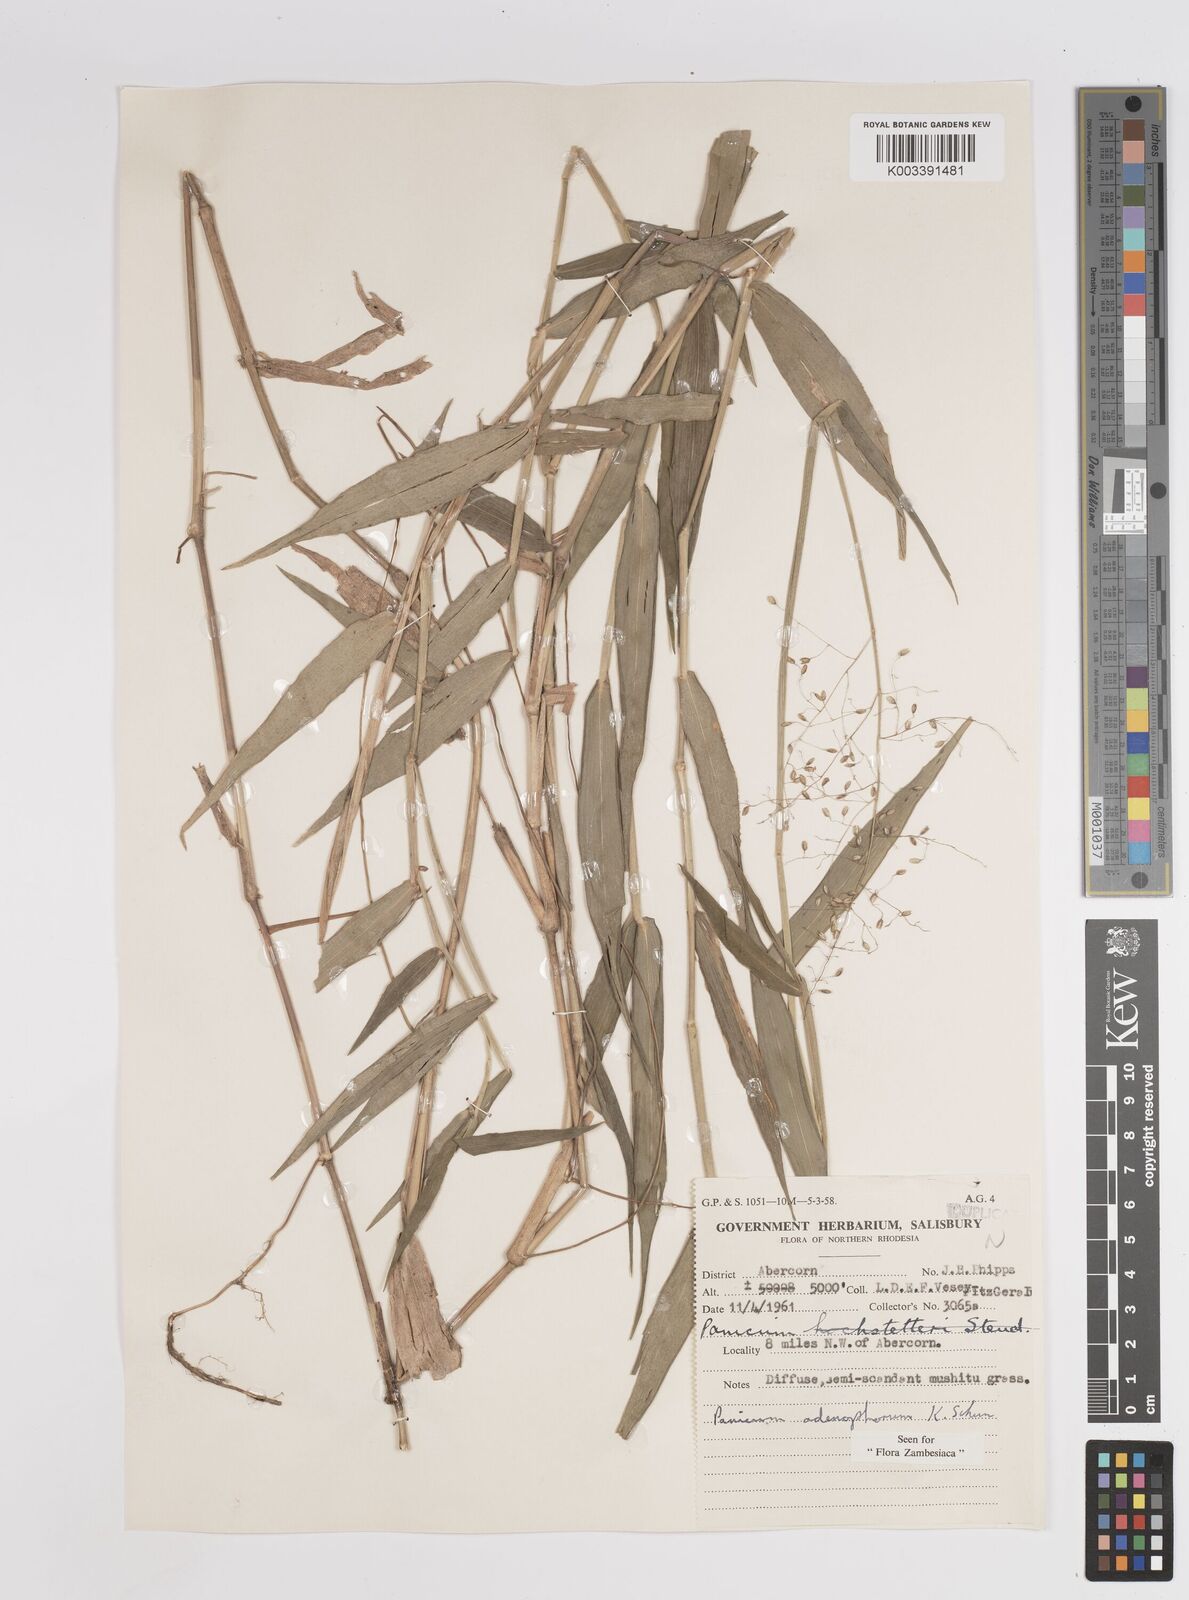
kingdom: Plantae
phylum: Tracheophyta
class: Liliopsida
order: Poales
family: Poaceae
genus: Adenochloa
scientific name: Adenochloa adenophora
